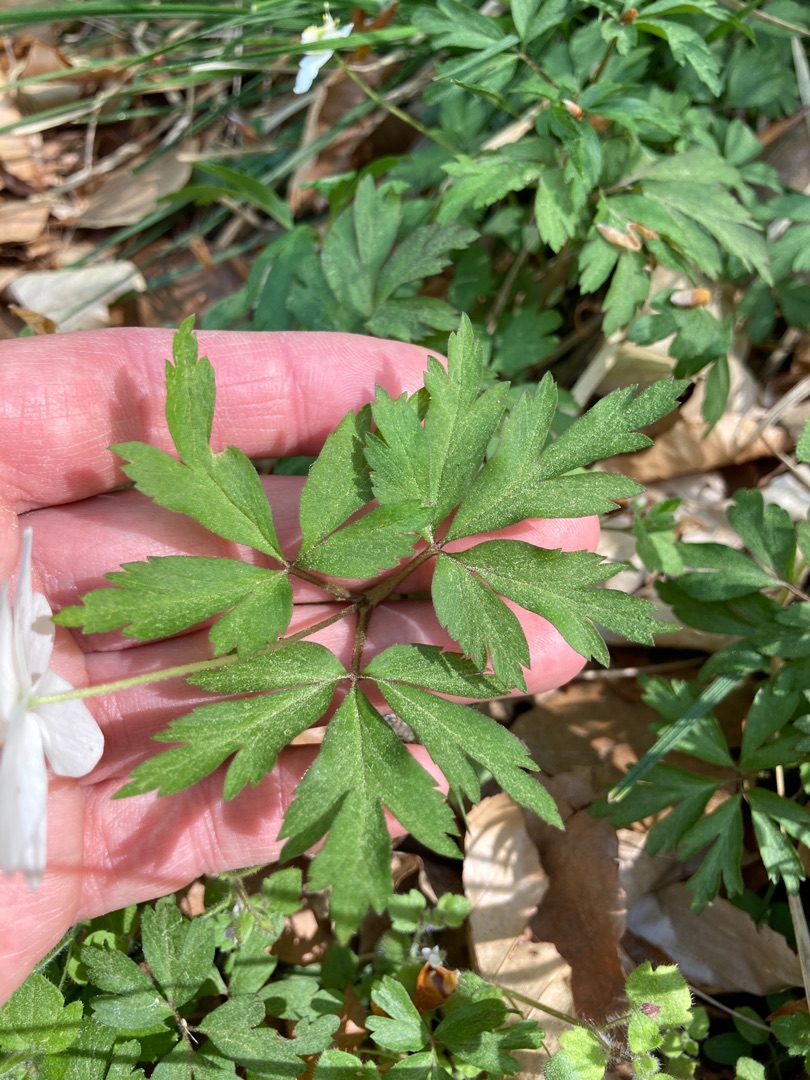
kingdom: Plantae
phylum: Tracheophyta
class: Magnoliopsida
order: Ranunculales
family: Ranunculaceae
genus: Anemone
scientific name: Anemone nemorosa
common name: Hvid anemone
